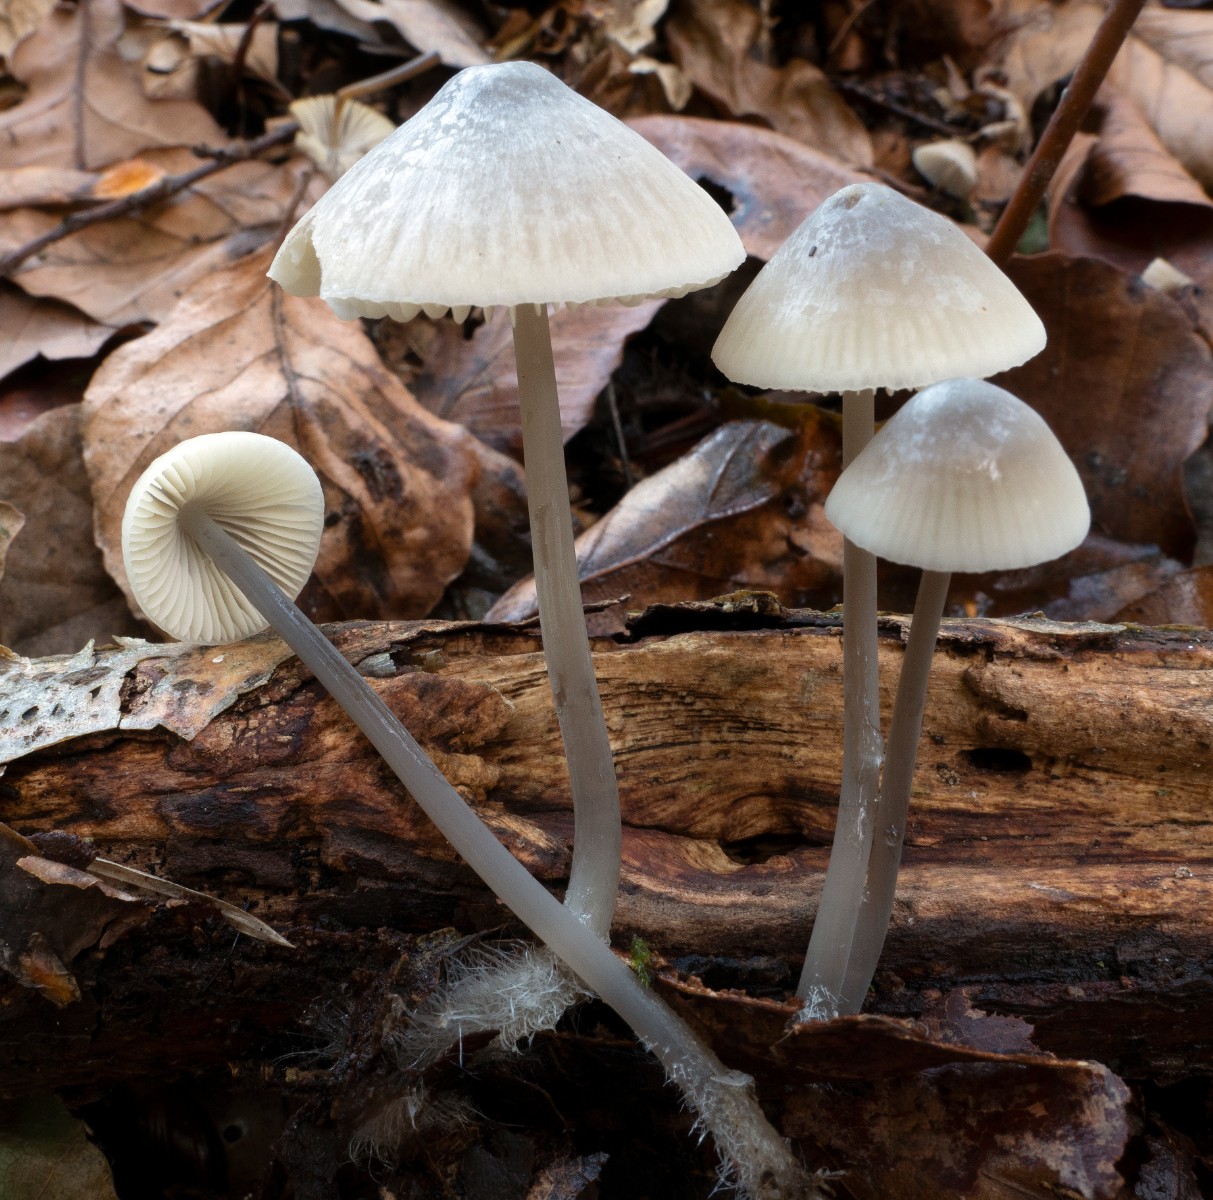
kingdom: Fungi
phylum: Basidiomycota
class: Agaricomycetes
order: Agaricales
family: Mycenaceae
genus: Mycena
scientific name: Mycena arcangeliana
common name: oliven-huesvamp
